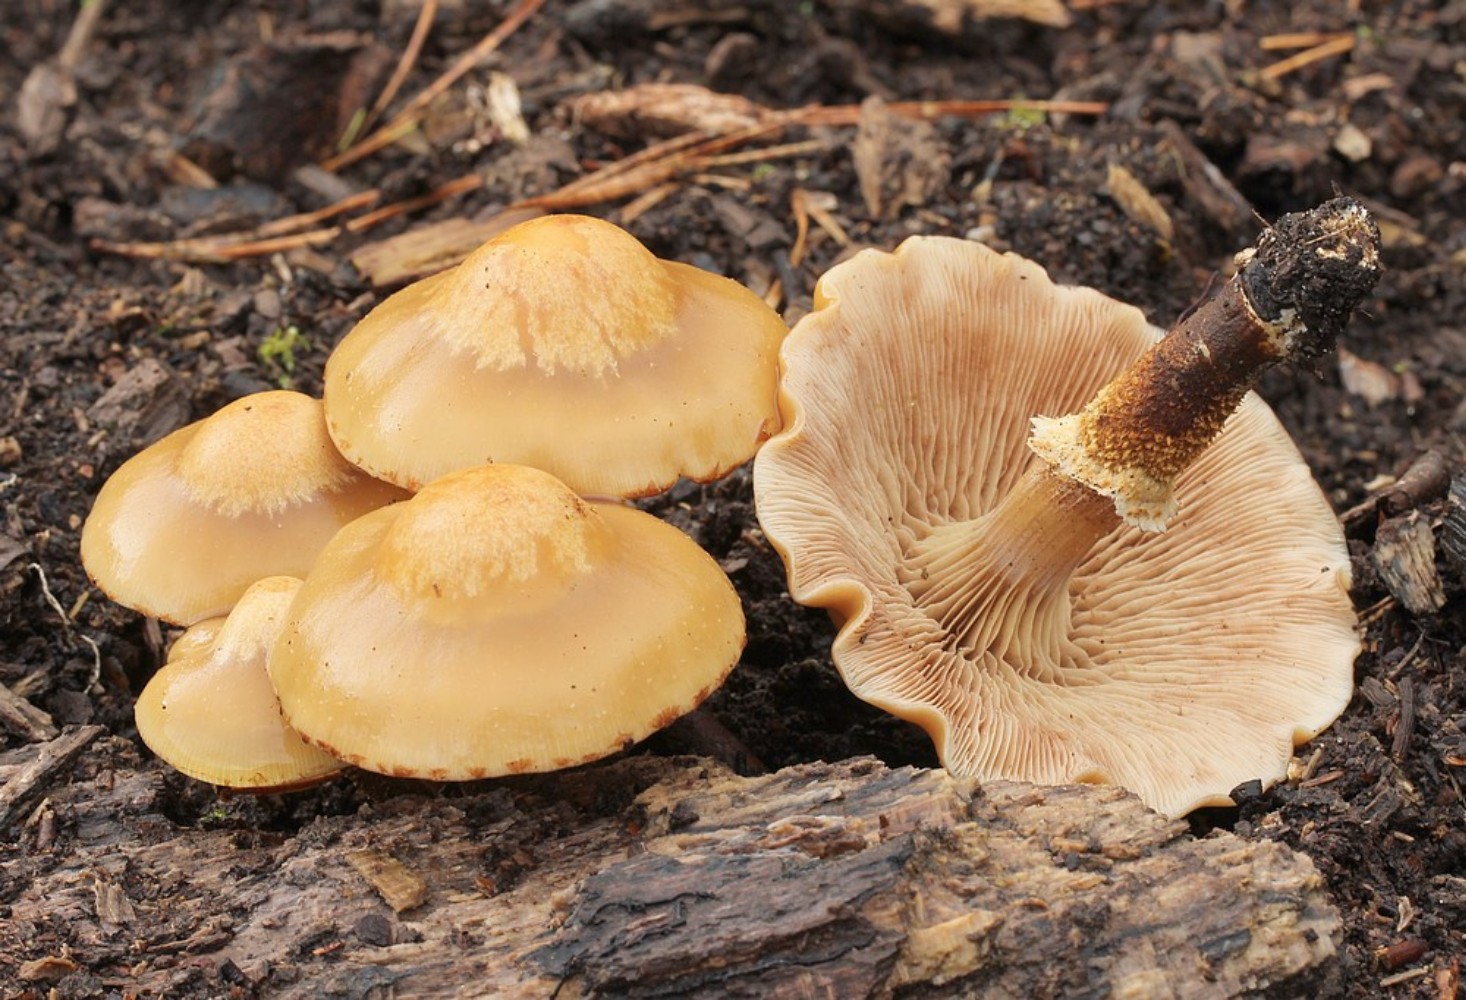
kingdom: Fungi
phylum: Basidiomycota
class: Agaricomycetes
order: Agaricales
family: Strophariaceae
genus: Kuehneromyces
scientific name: Kuehneromyces mutabilis
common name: foranderlig skælhat
